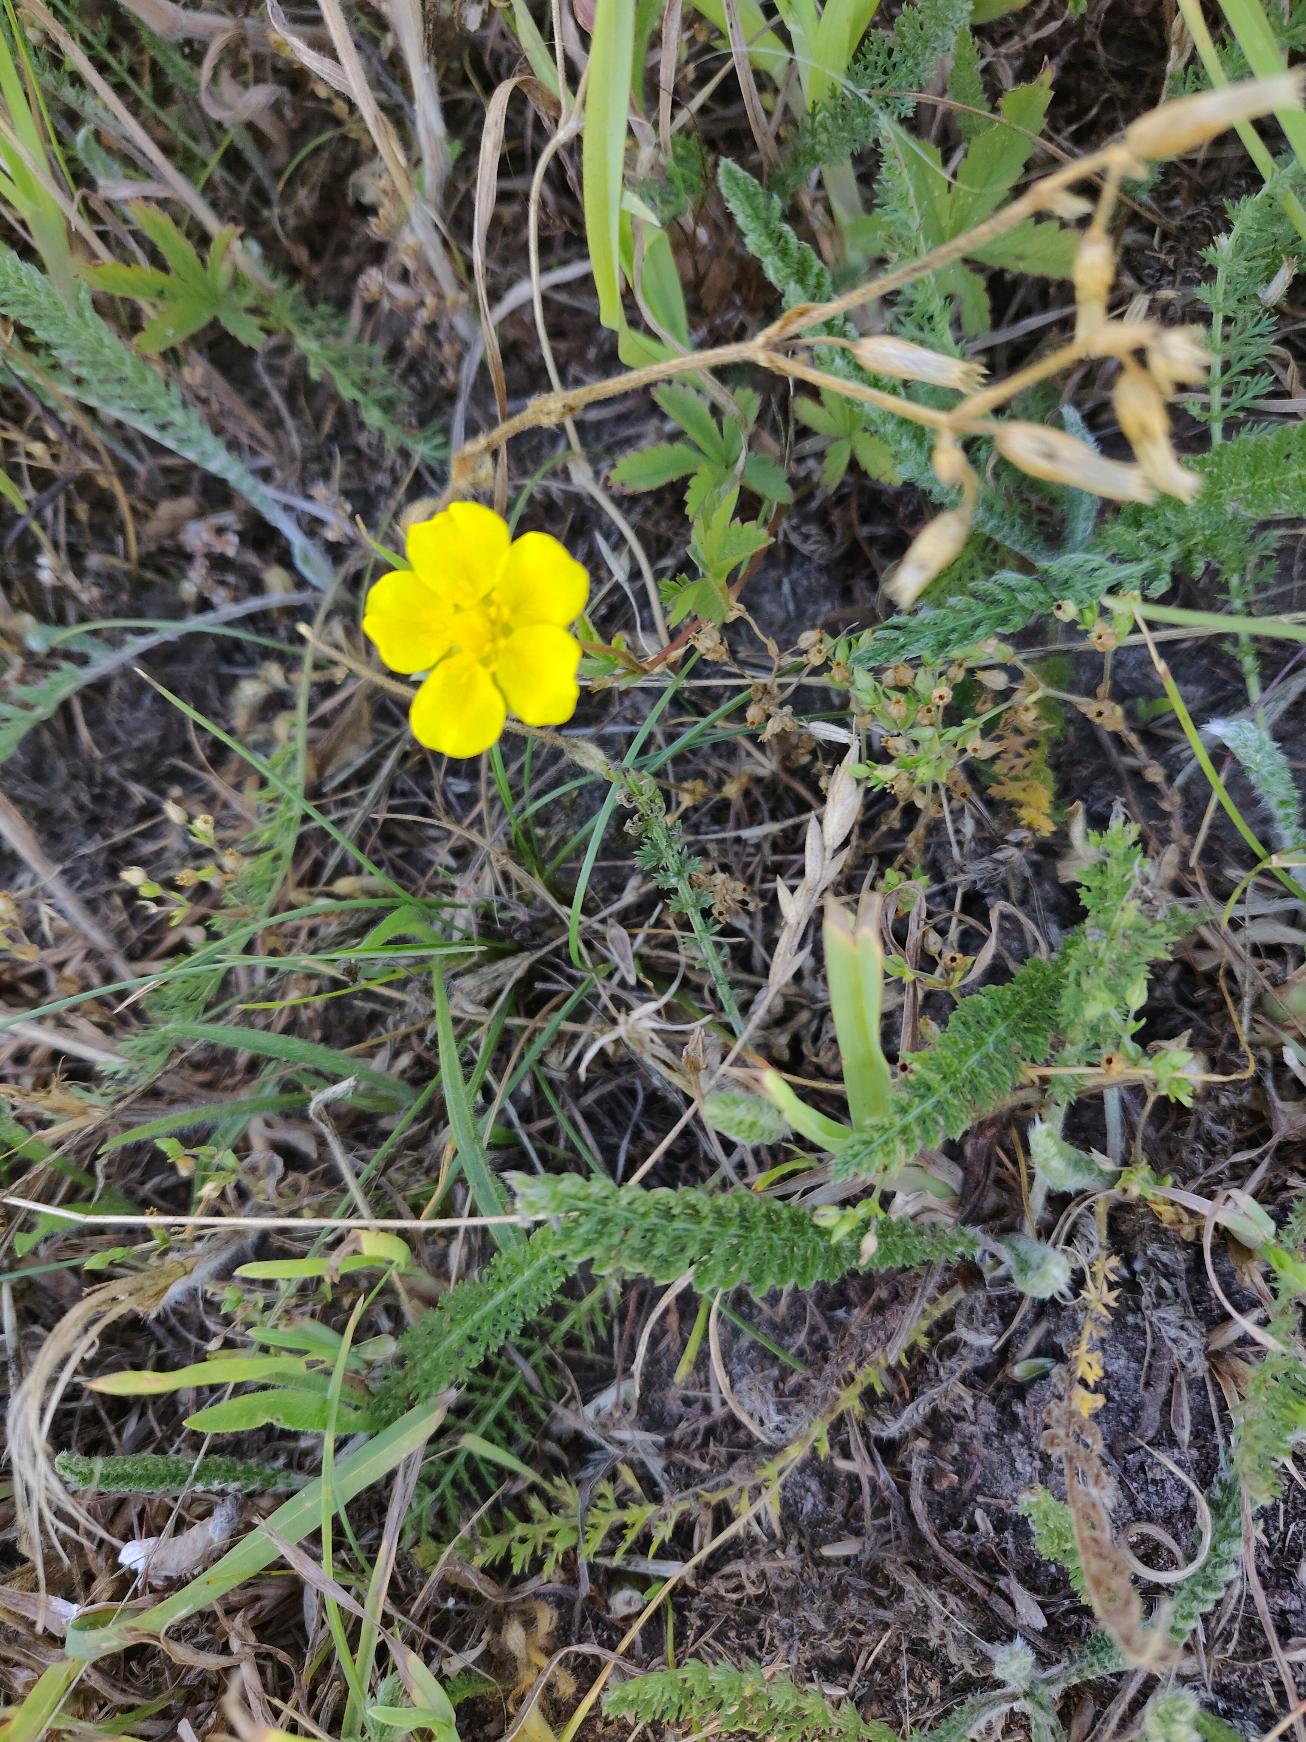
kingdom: Plantae
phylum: Tracheophyta
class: Magnoliopsida
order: Rosales
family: Rosaceae
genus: Potentilla
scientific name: Potentilla reptans
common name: Krybende potentil
